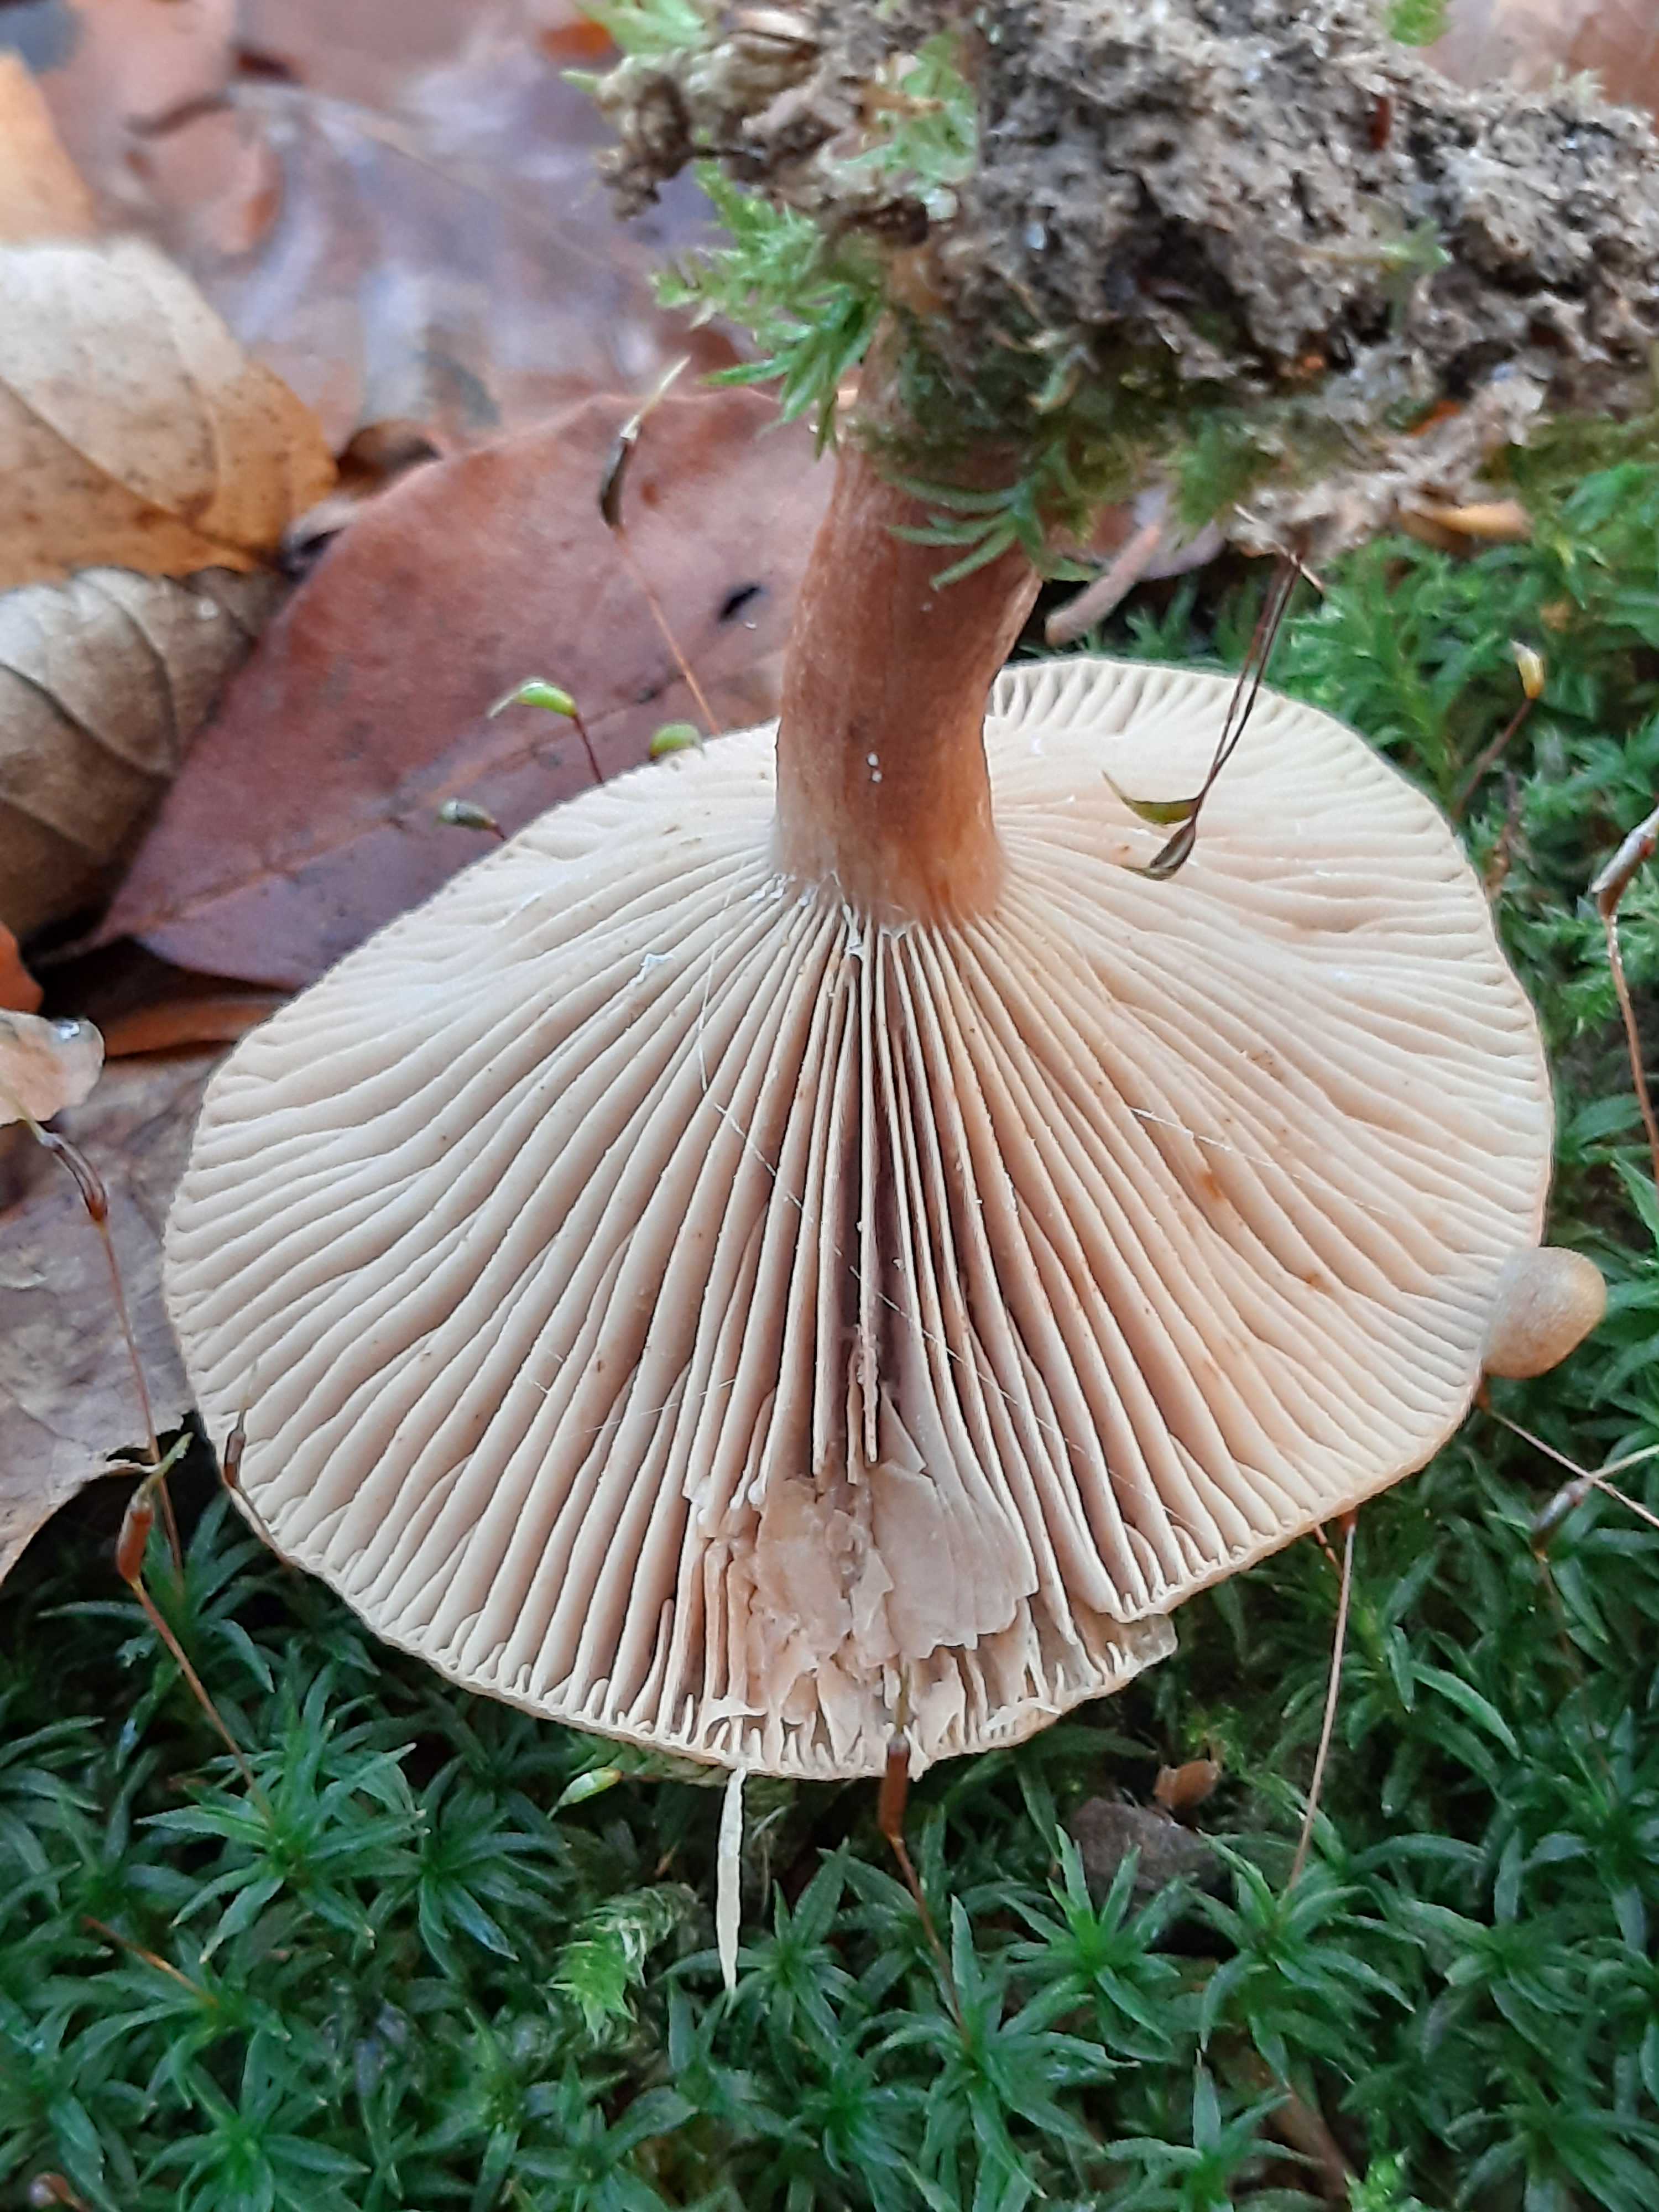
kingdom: Fungi
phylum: Basidiomycota
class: Agaricomycetes
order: Russulales
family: Russulaceae
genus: Lactarius
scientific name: Lactarius subdulcis
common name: sødlig mælkehat
